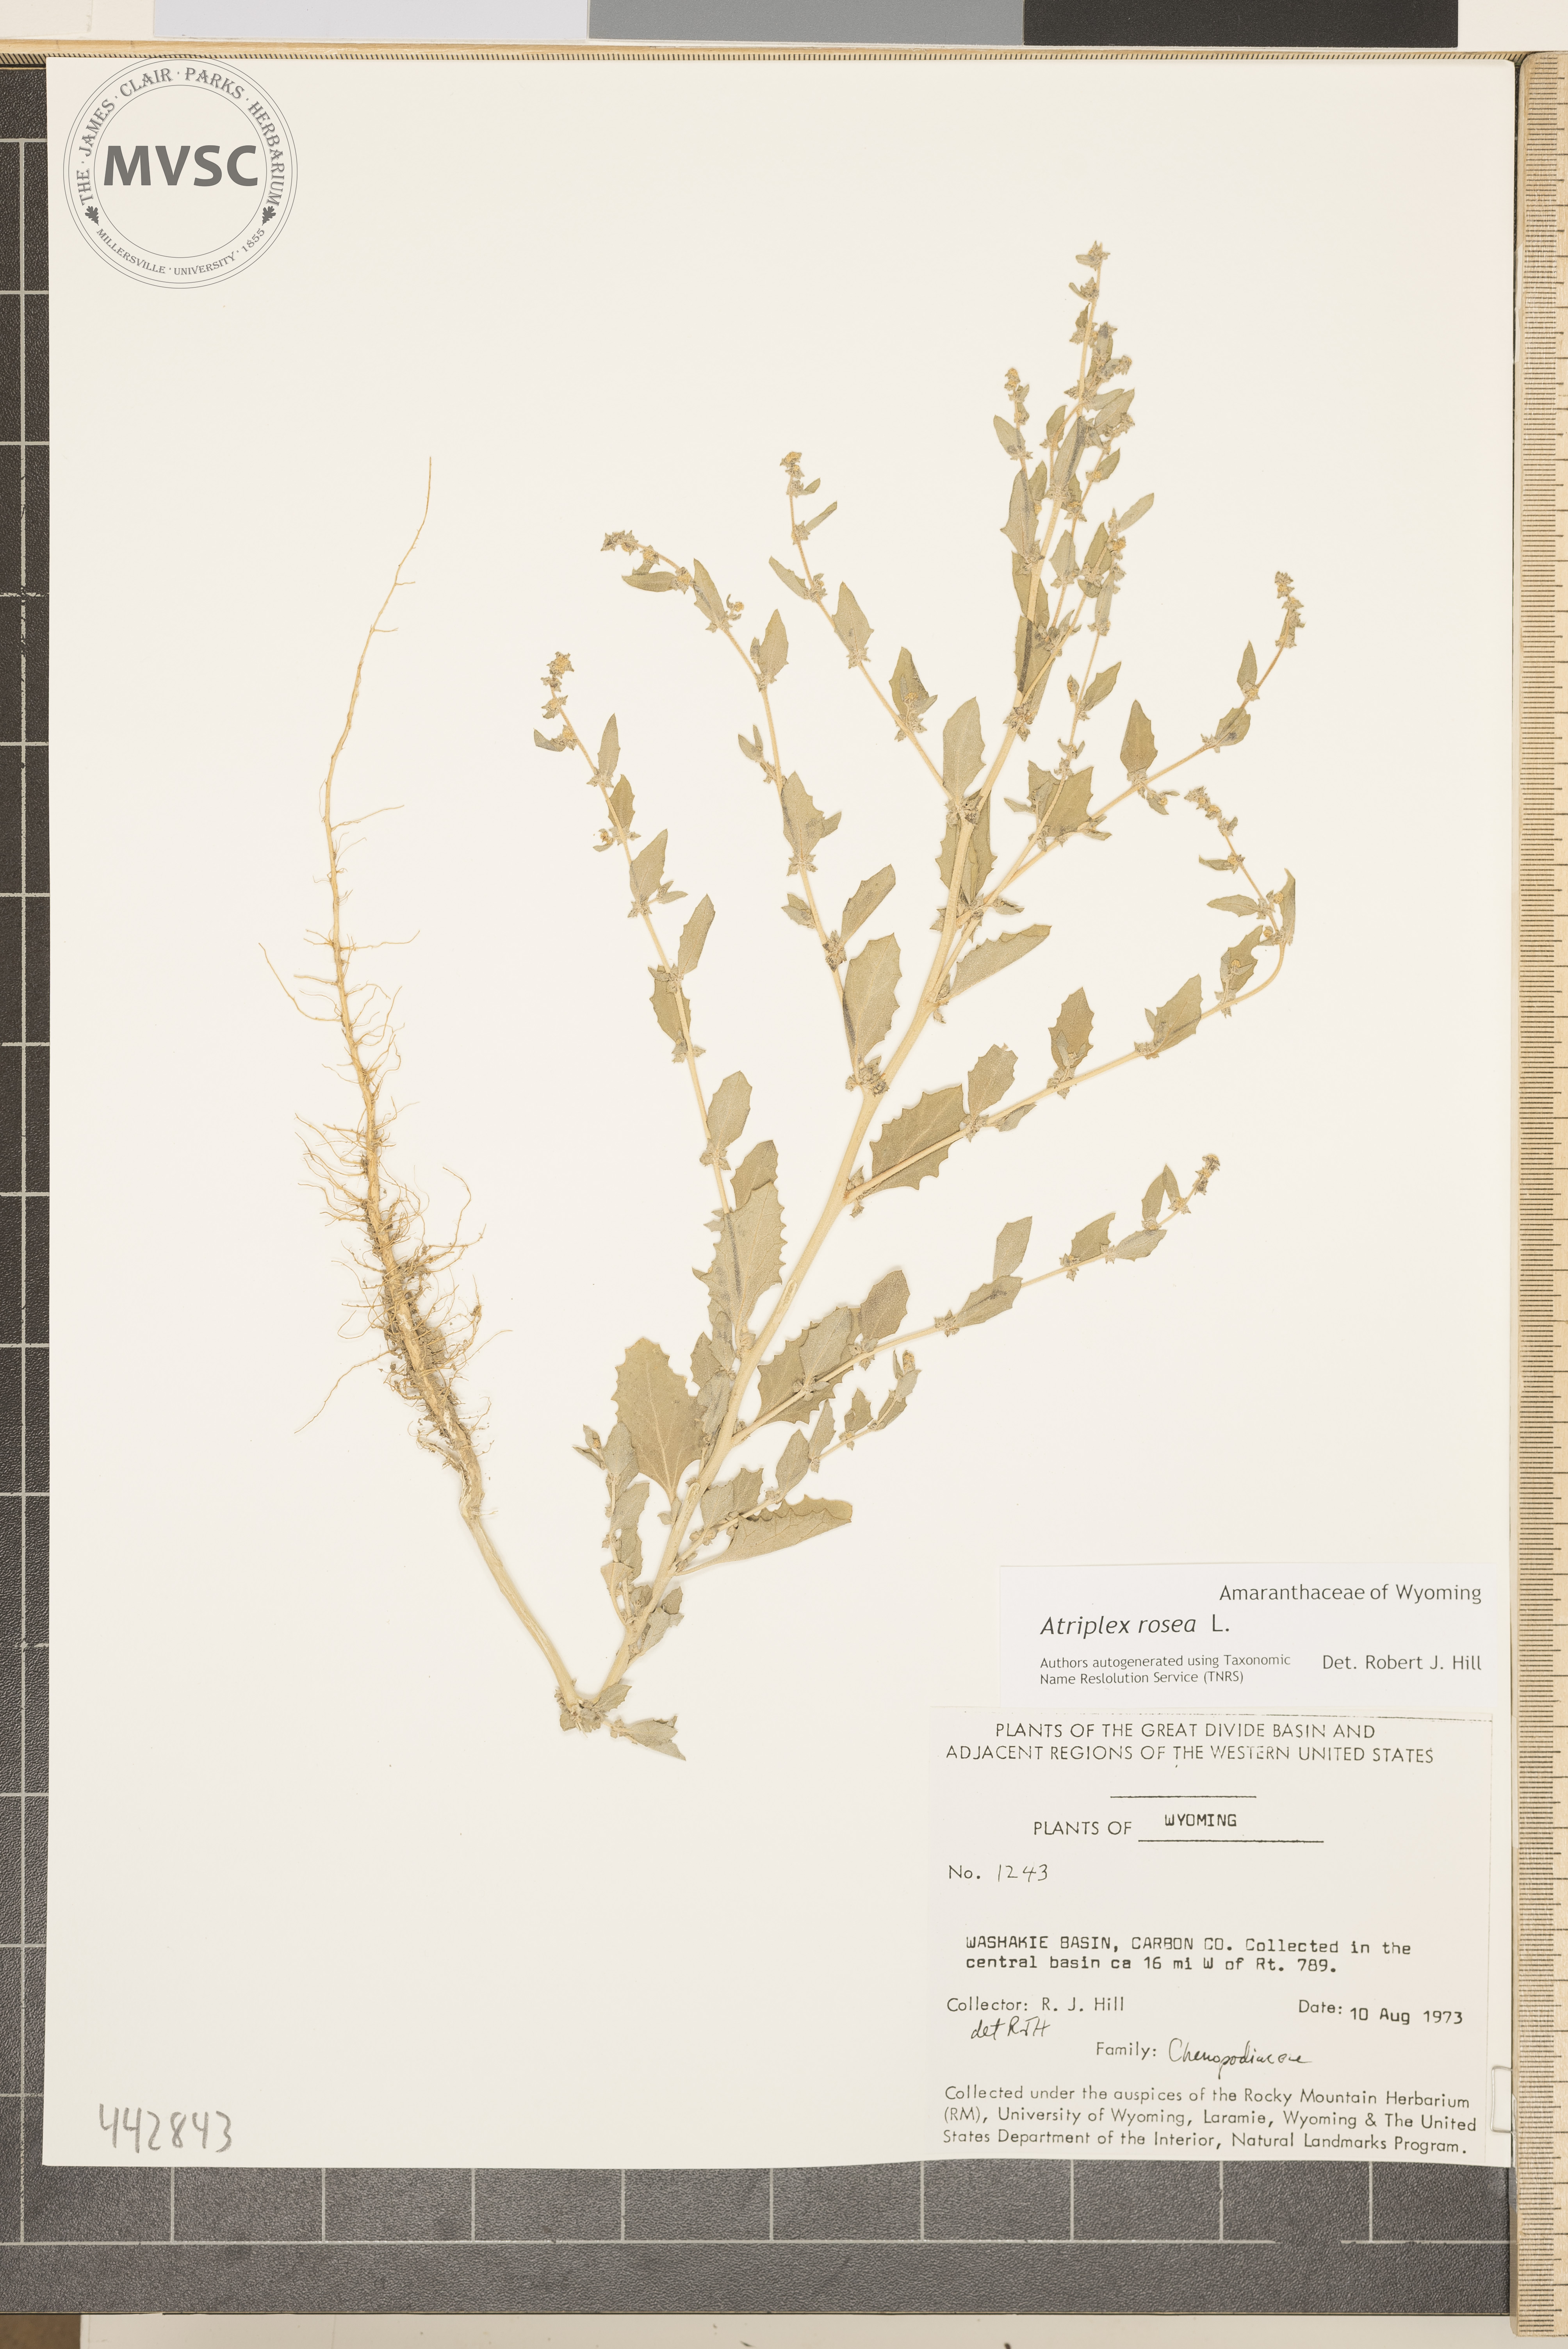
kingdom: Plantae
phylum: Tracheophyta
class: Magnoliopsida
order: Caryophyllales
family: Amaranthaceae
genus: Atriplex
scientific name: Atriplex rosea
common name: Tumbling saltweed
